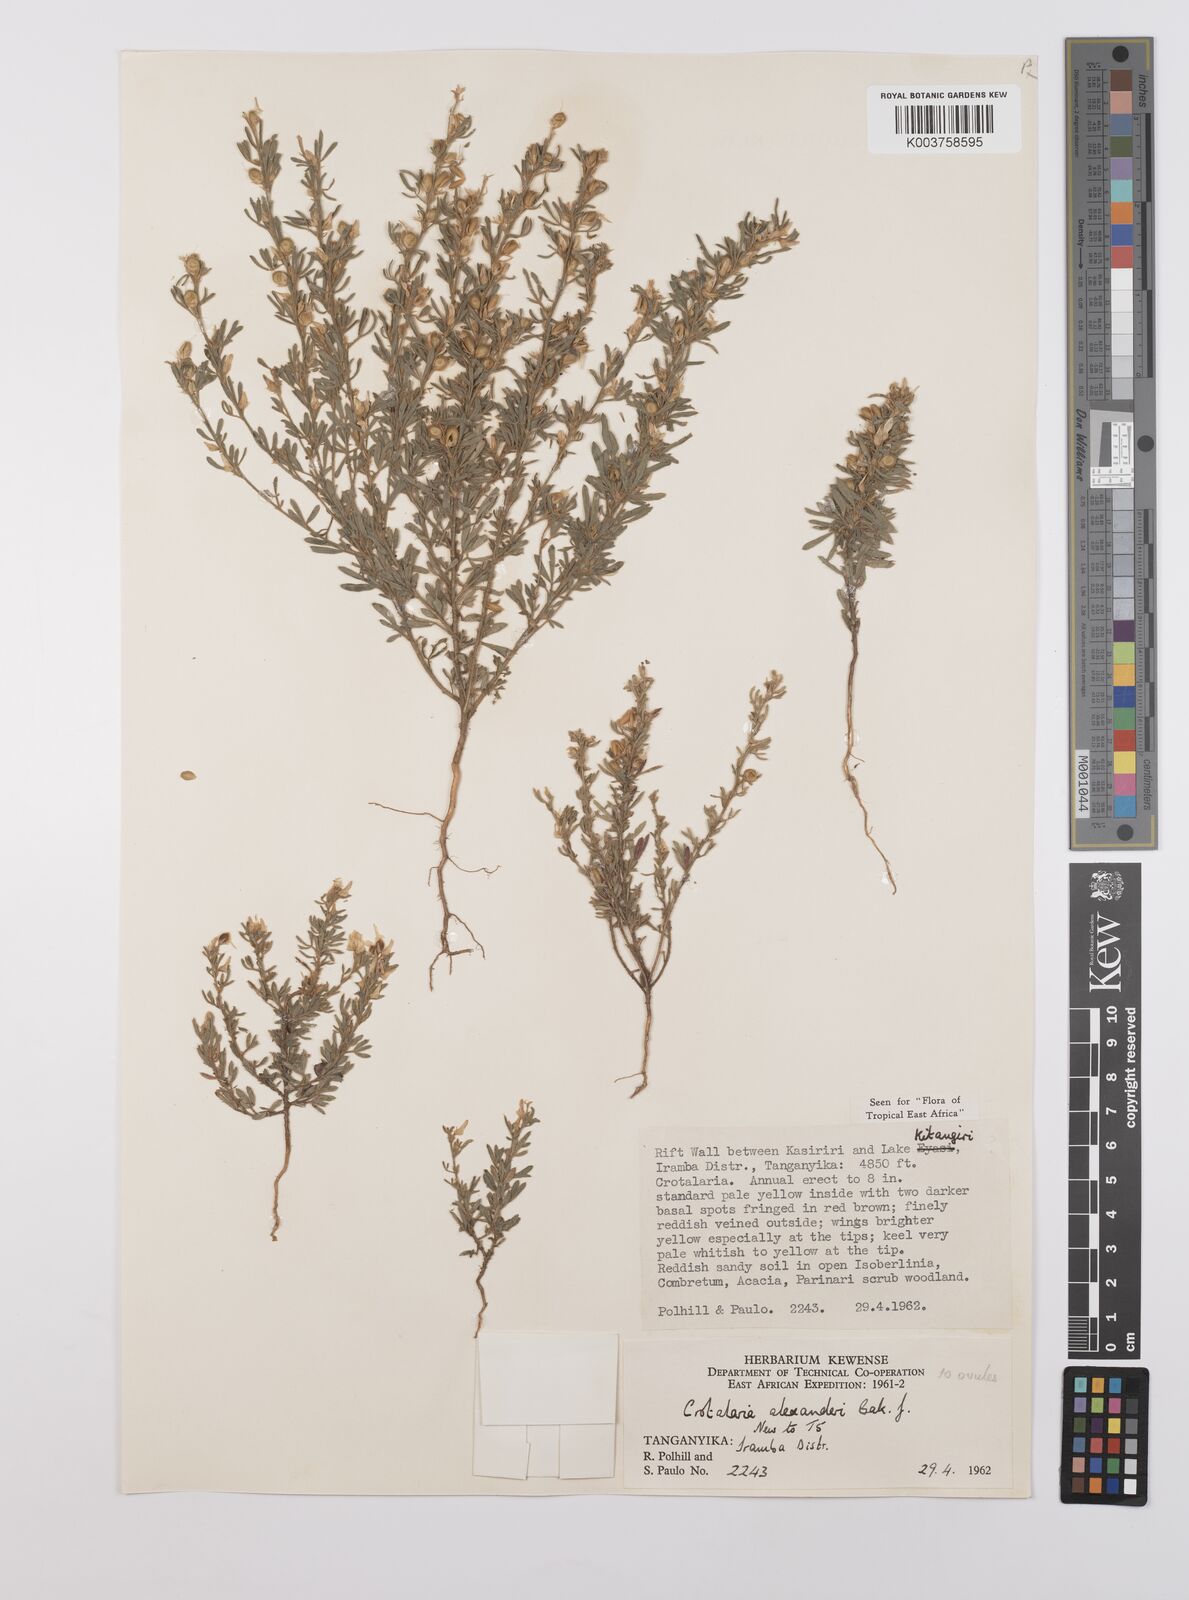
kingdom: Plantae
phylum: Tracheophyta
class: Magnoliopsida
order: Fabales
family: Fabaceae
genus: Crotalaria
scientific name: Crotalaria alexandri
